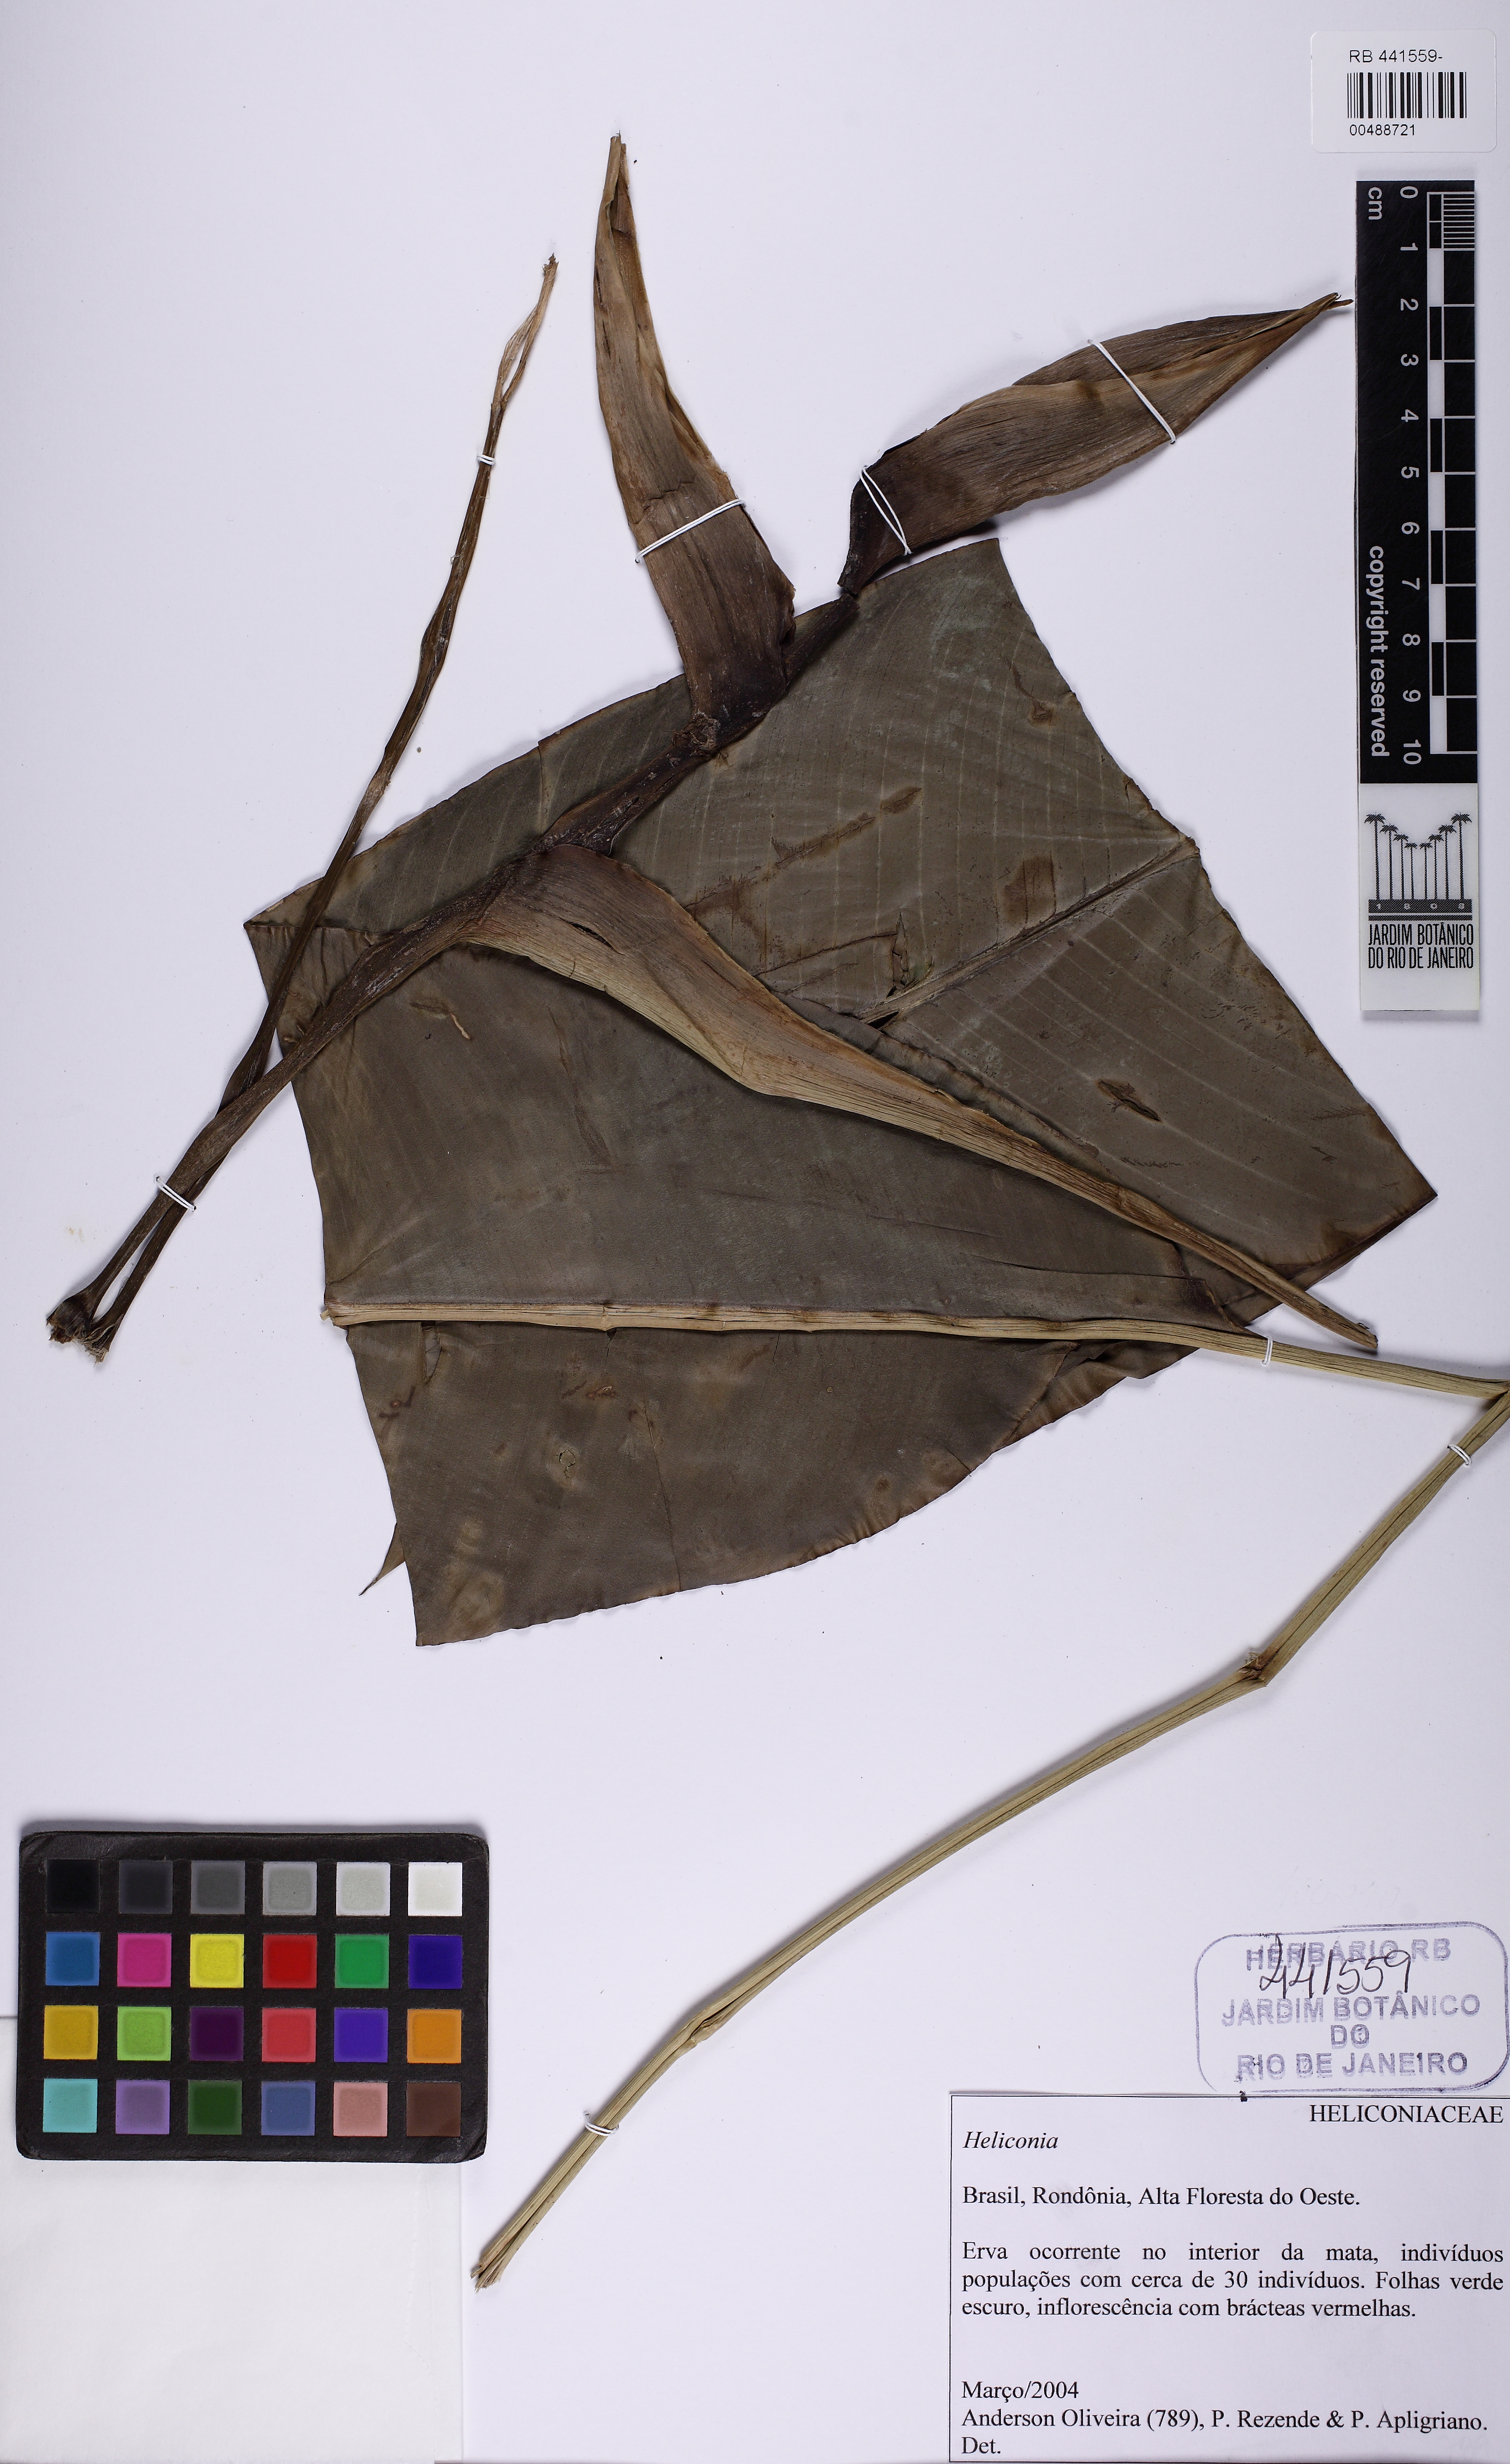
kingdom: Plantae
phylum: Tracheophyta
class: Liliopsida
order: Zingiberales
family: Heliconiaceae
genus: Heliconia
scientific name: Heliconia stricta
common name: Small lobster claw
